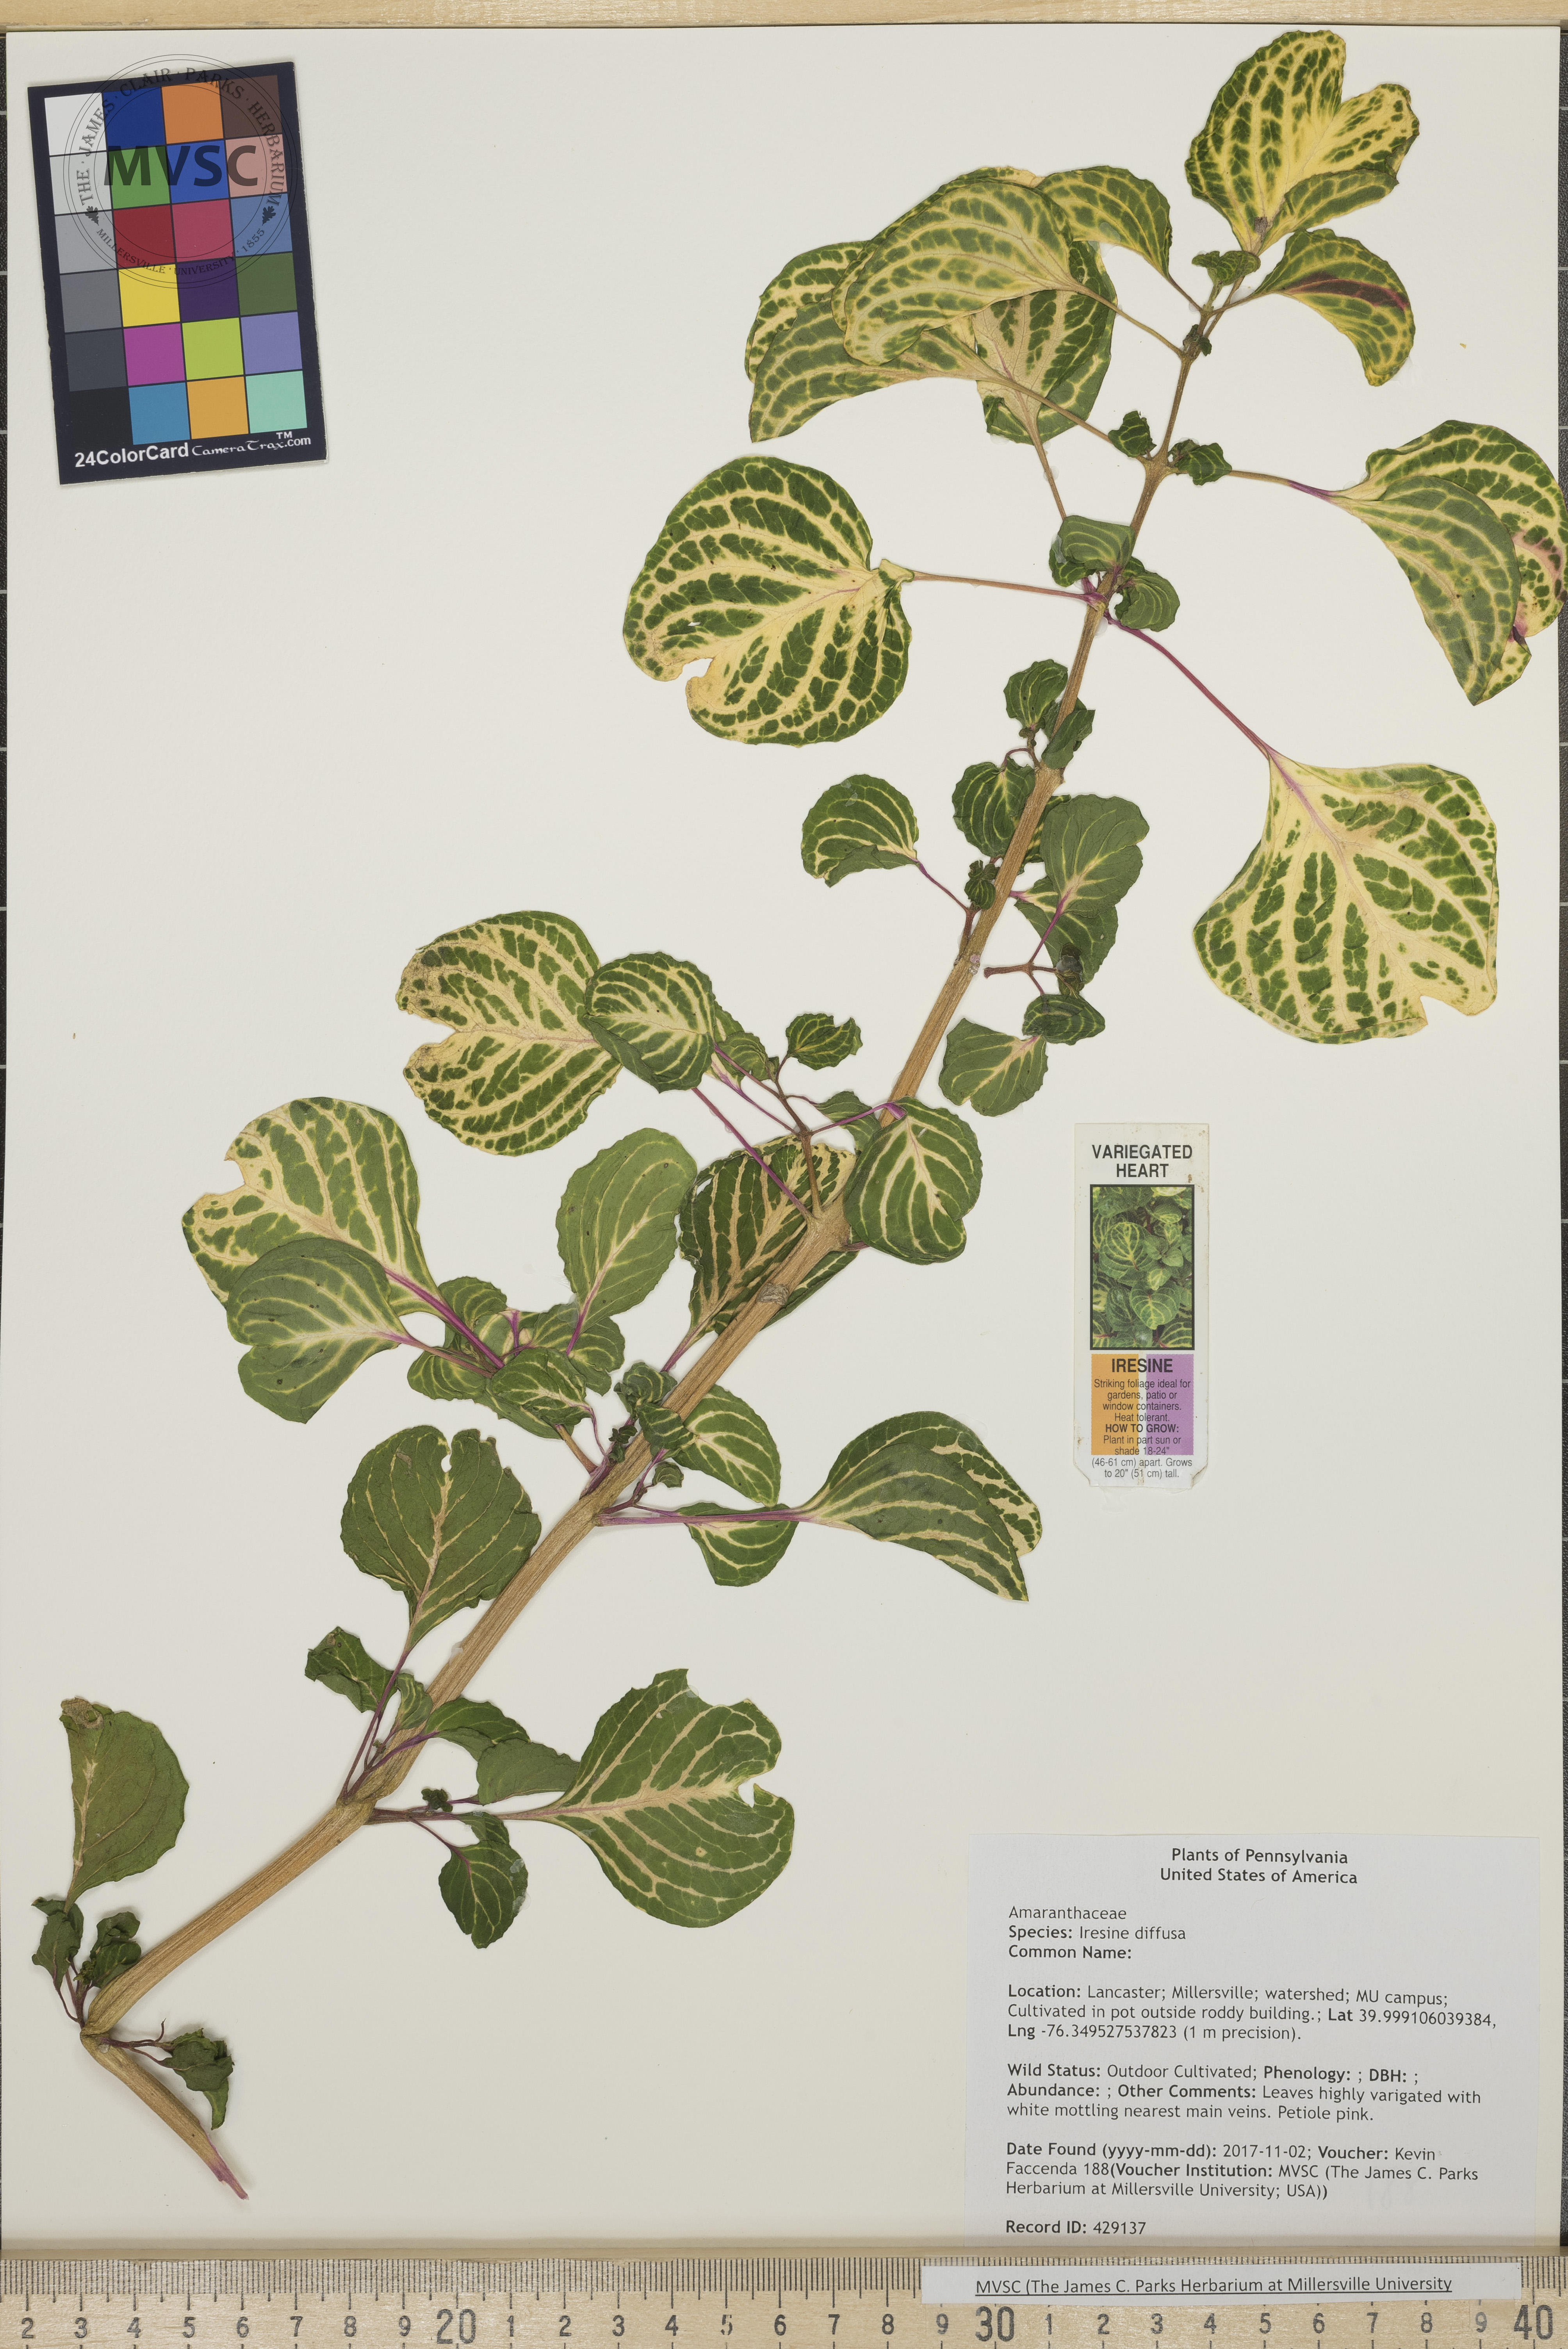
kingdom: Plantae
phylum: Tracheophyta
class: Magnoliopsida
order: Caryophyllales
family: Amaranthaceae
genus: Iresine
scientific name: Iresine diffusa
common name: Juba's-bush
